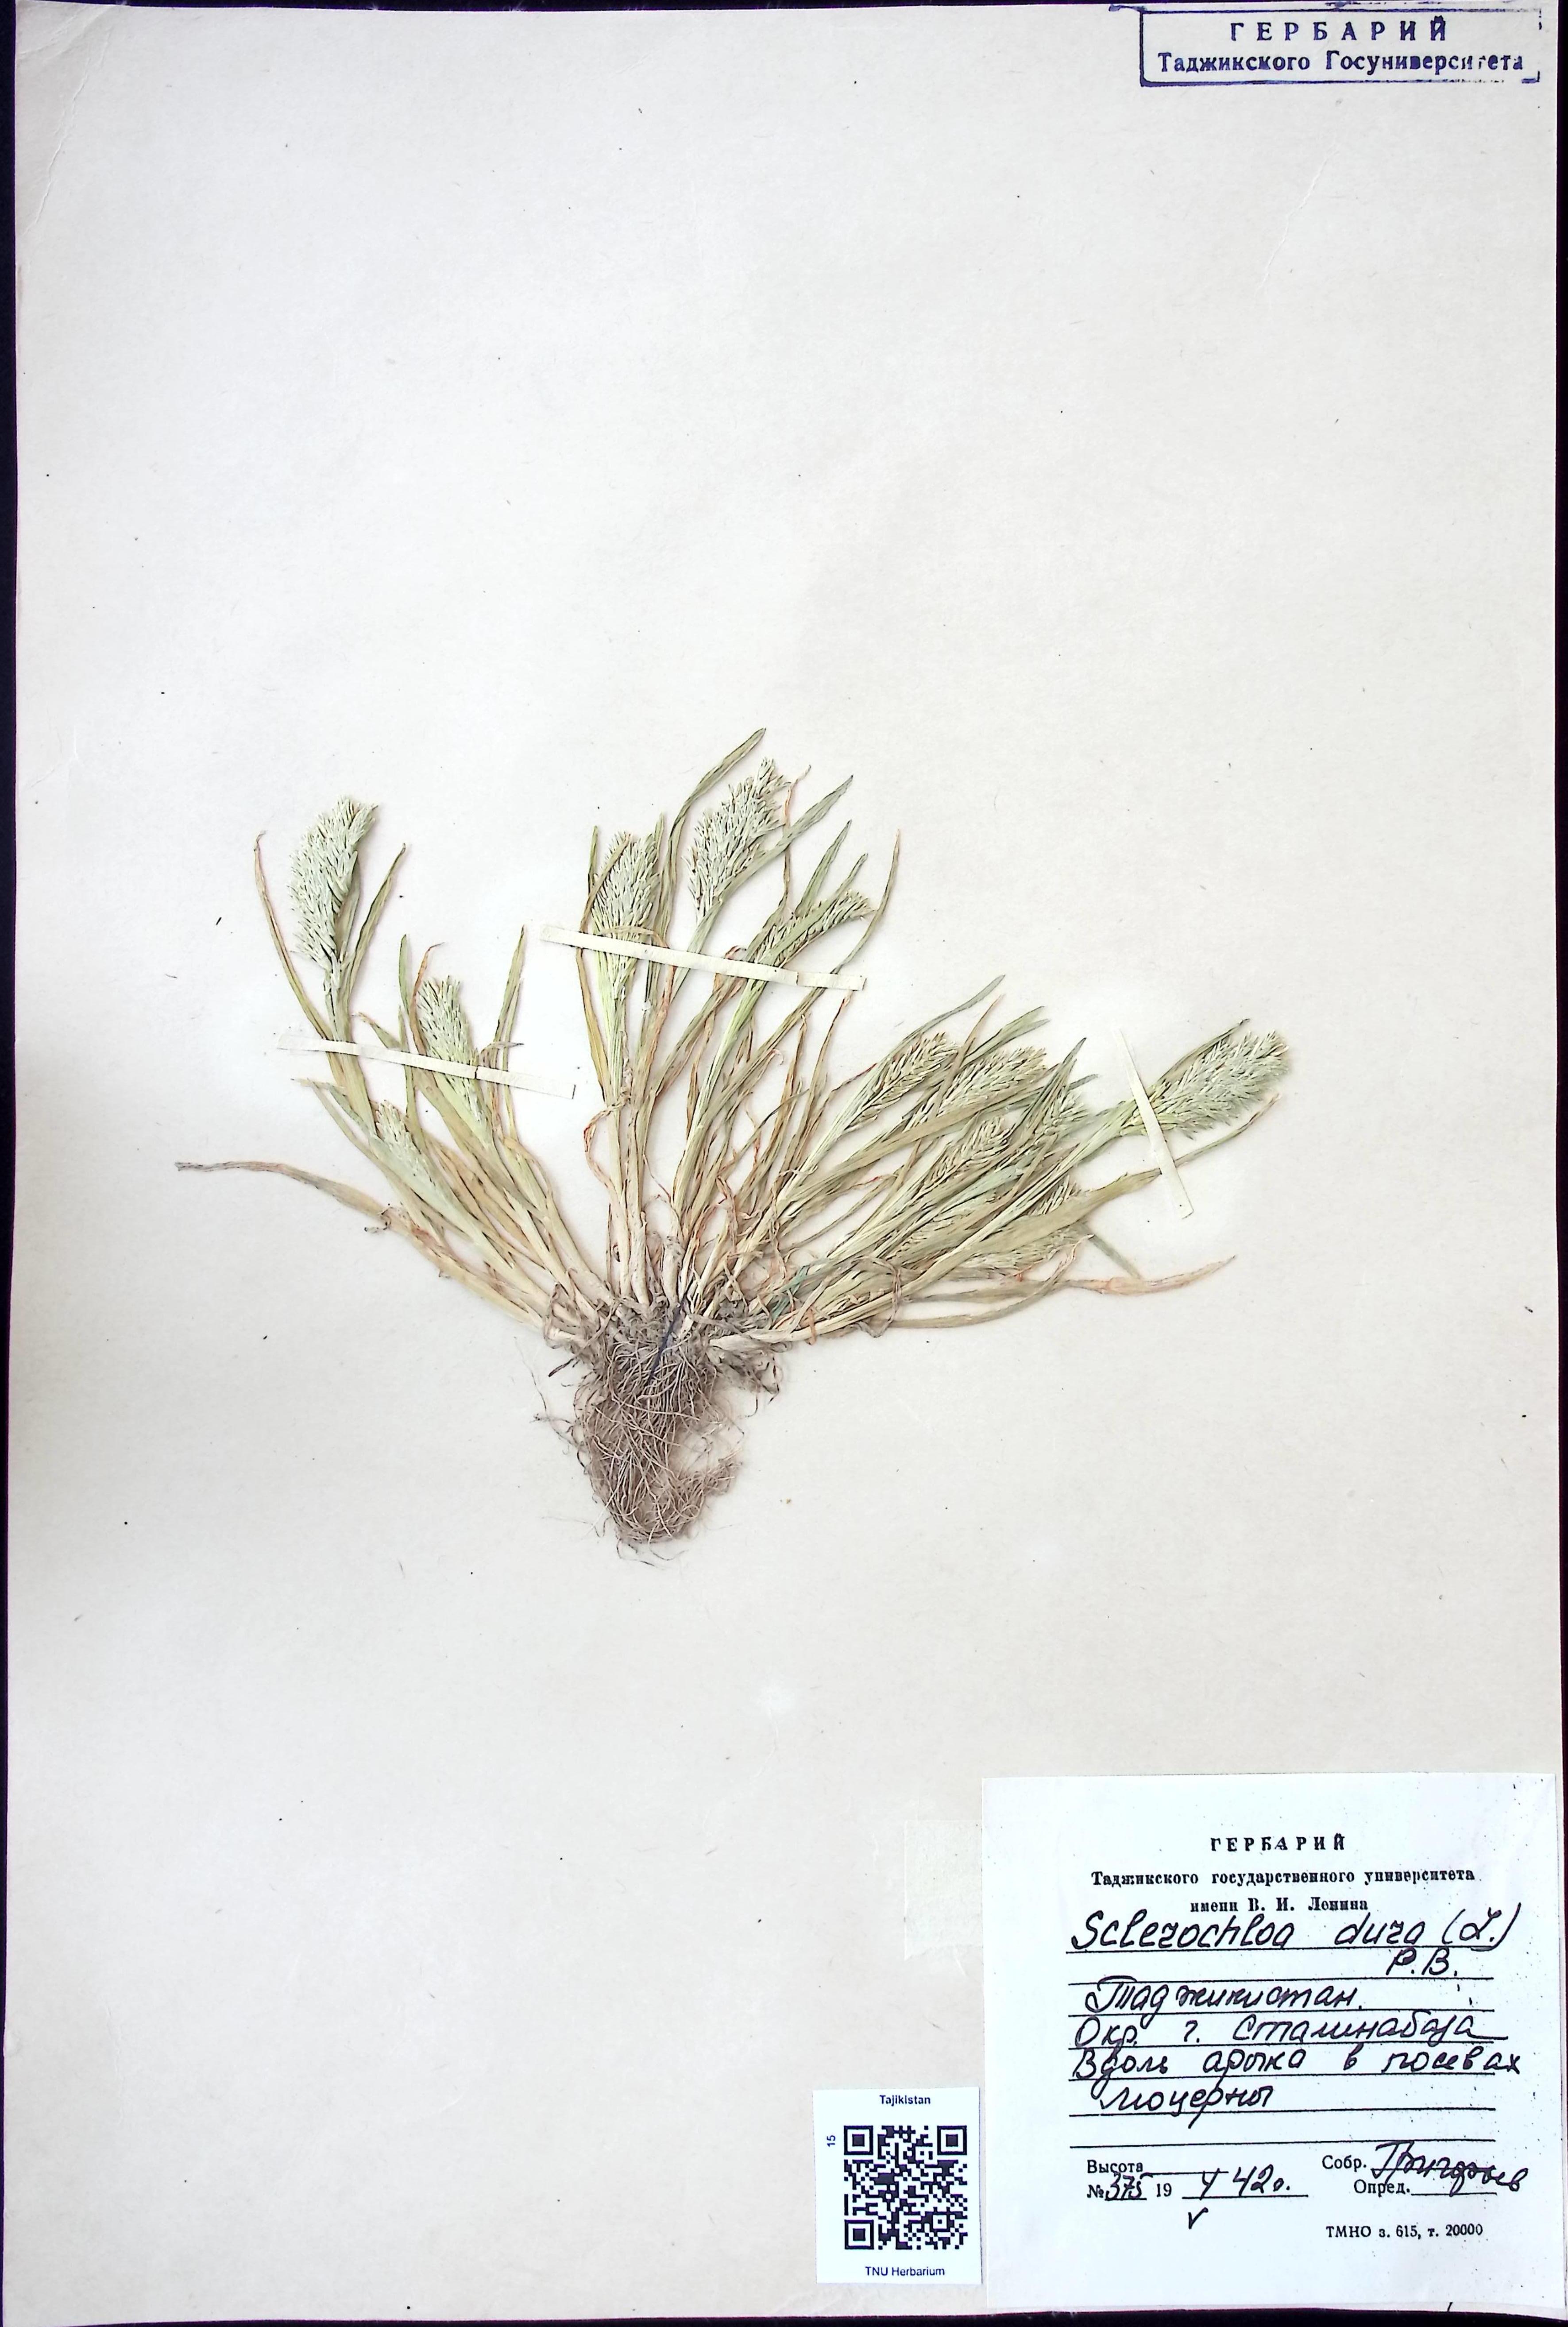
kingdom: Plantae
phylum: Tracheophyta
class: Liliopsida
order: Poales
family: Poaceae
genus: Sclerochloa
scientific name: Sclerochloa dura
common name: Common hardgrass
